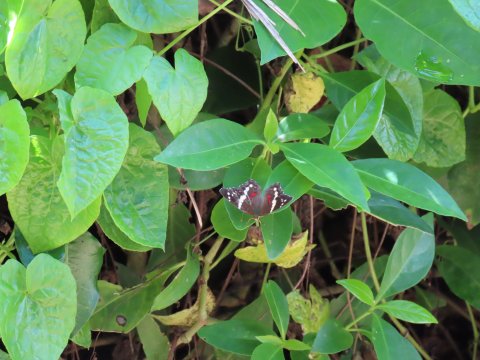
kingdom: Animalia
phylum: Arthropoda
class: Insecta
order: Lepidoptera
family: Nymphalidae
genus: Anartia
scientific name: Anartia fatima
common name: Banded Peacock
